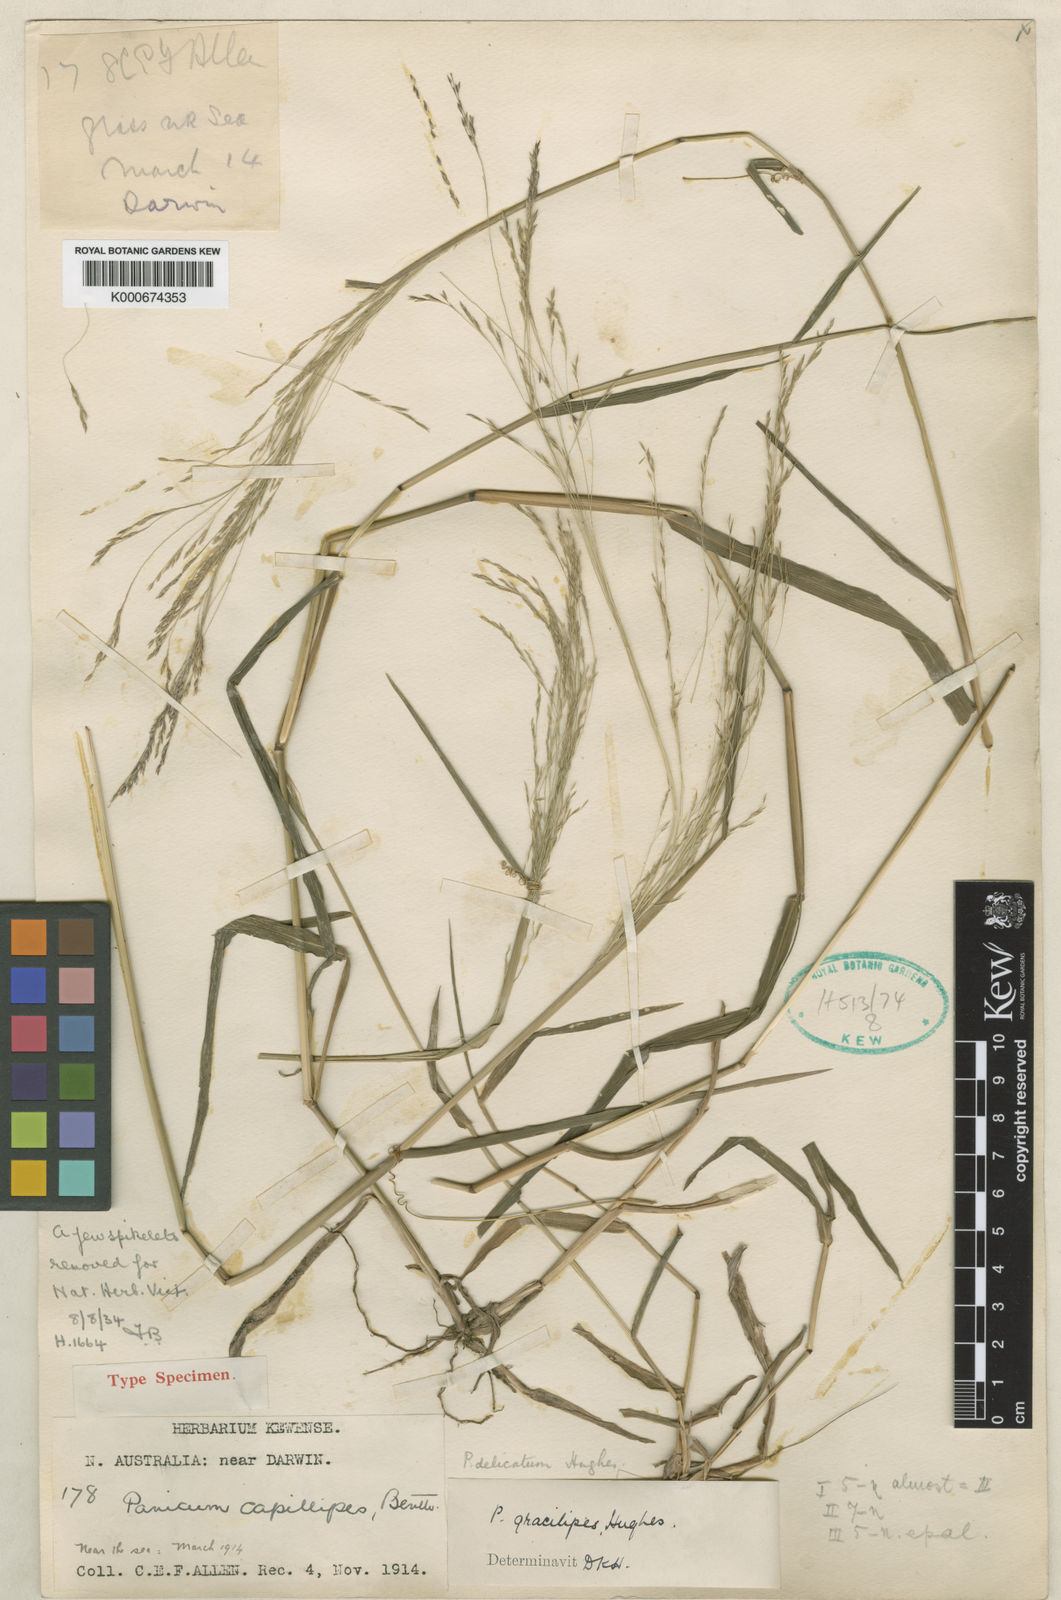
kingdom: Plantae
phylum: Tracheophyta
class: Liliopsida
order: Poales
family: Poaceae
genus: Panicum
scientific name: Panicum mindanaense
